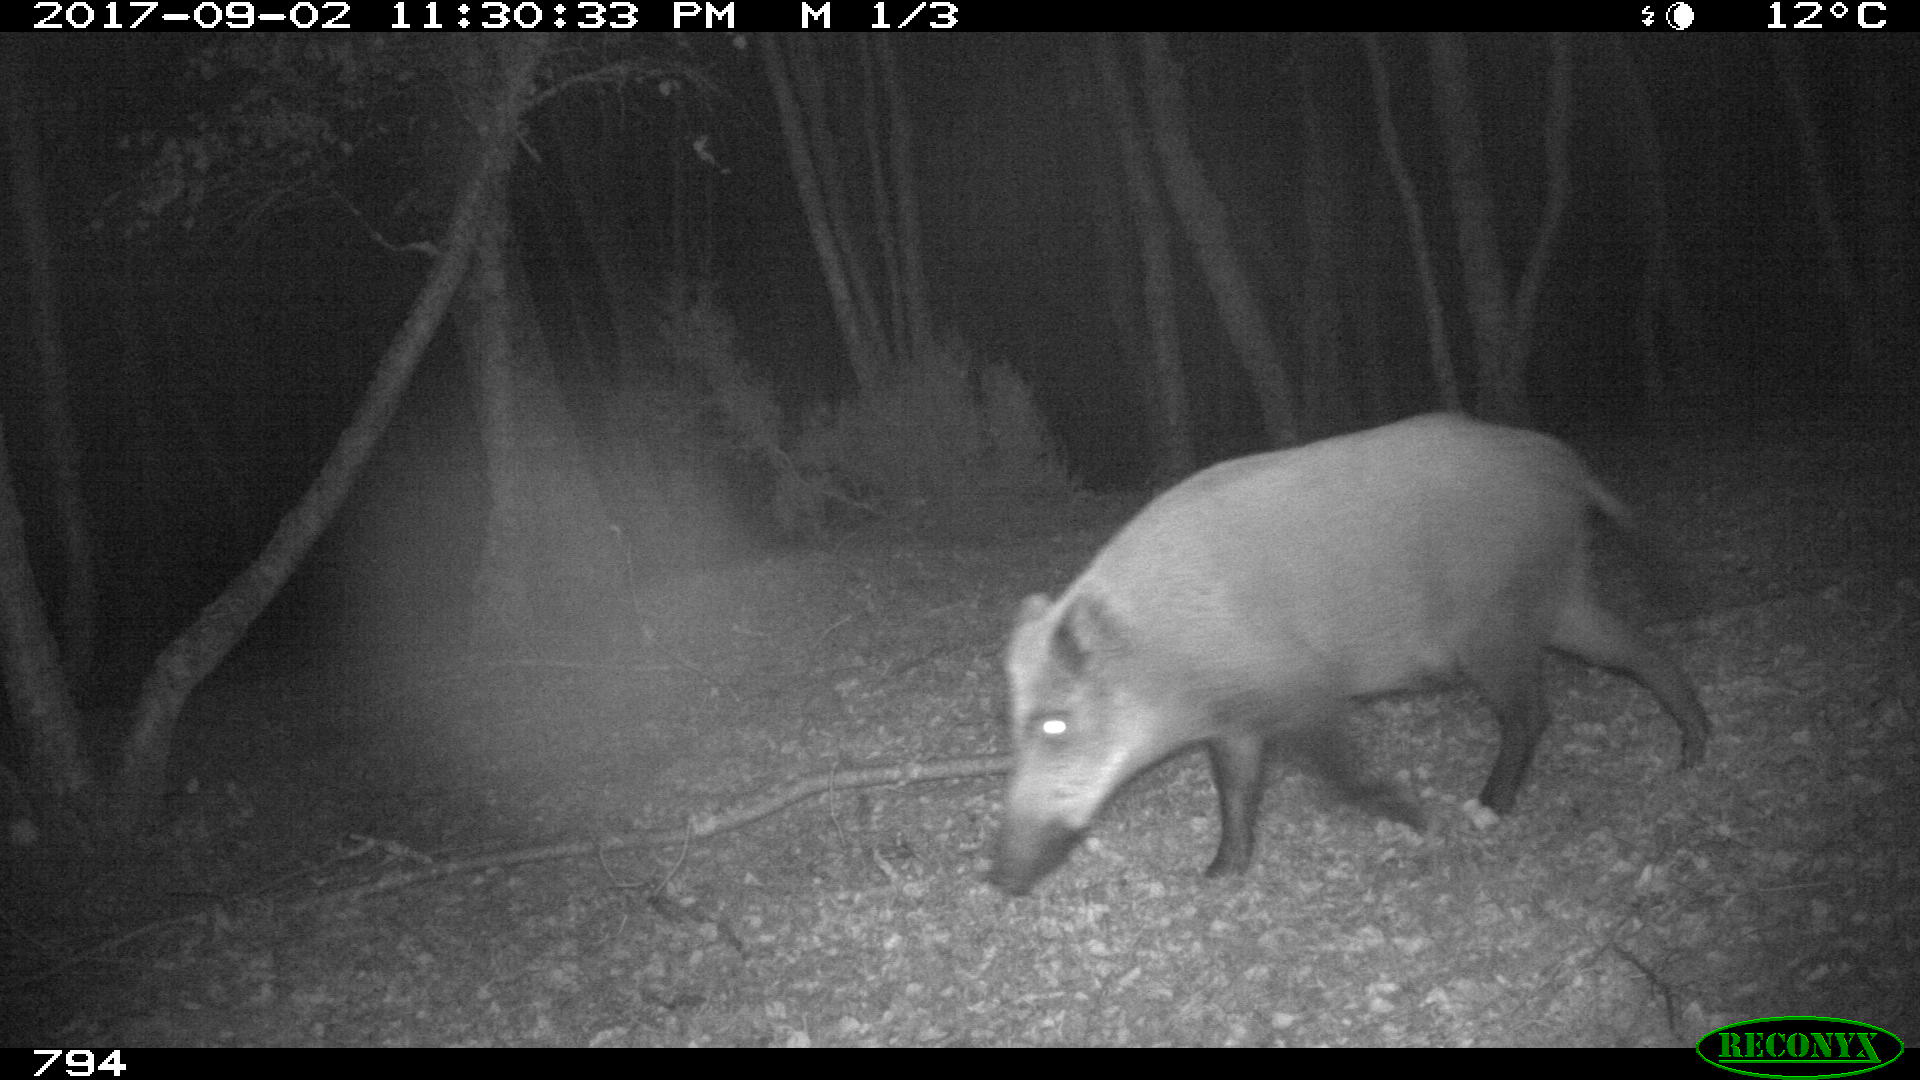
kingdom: Animalia
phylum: Chordata
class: Mammalia
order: Artiodactyla
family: Suidae
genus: Sus
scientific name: Sus scrofa
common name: Wild boar
